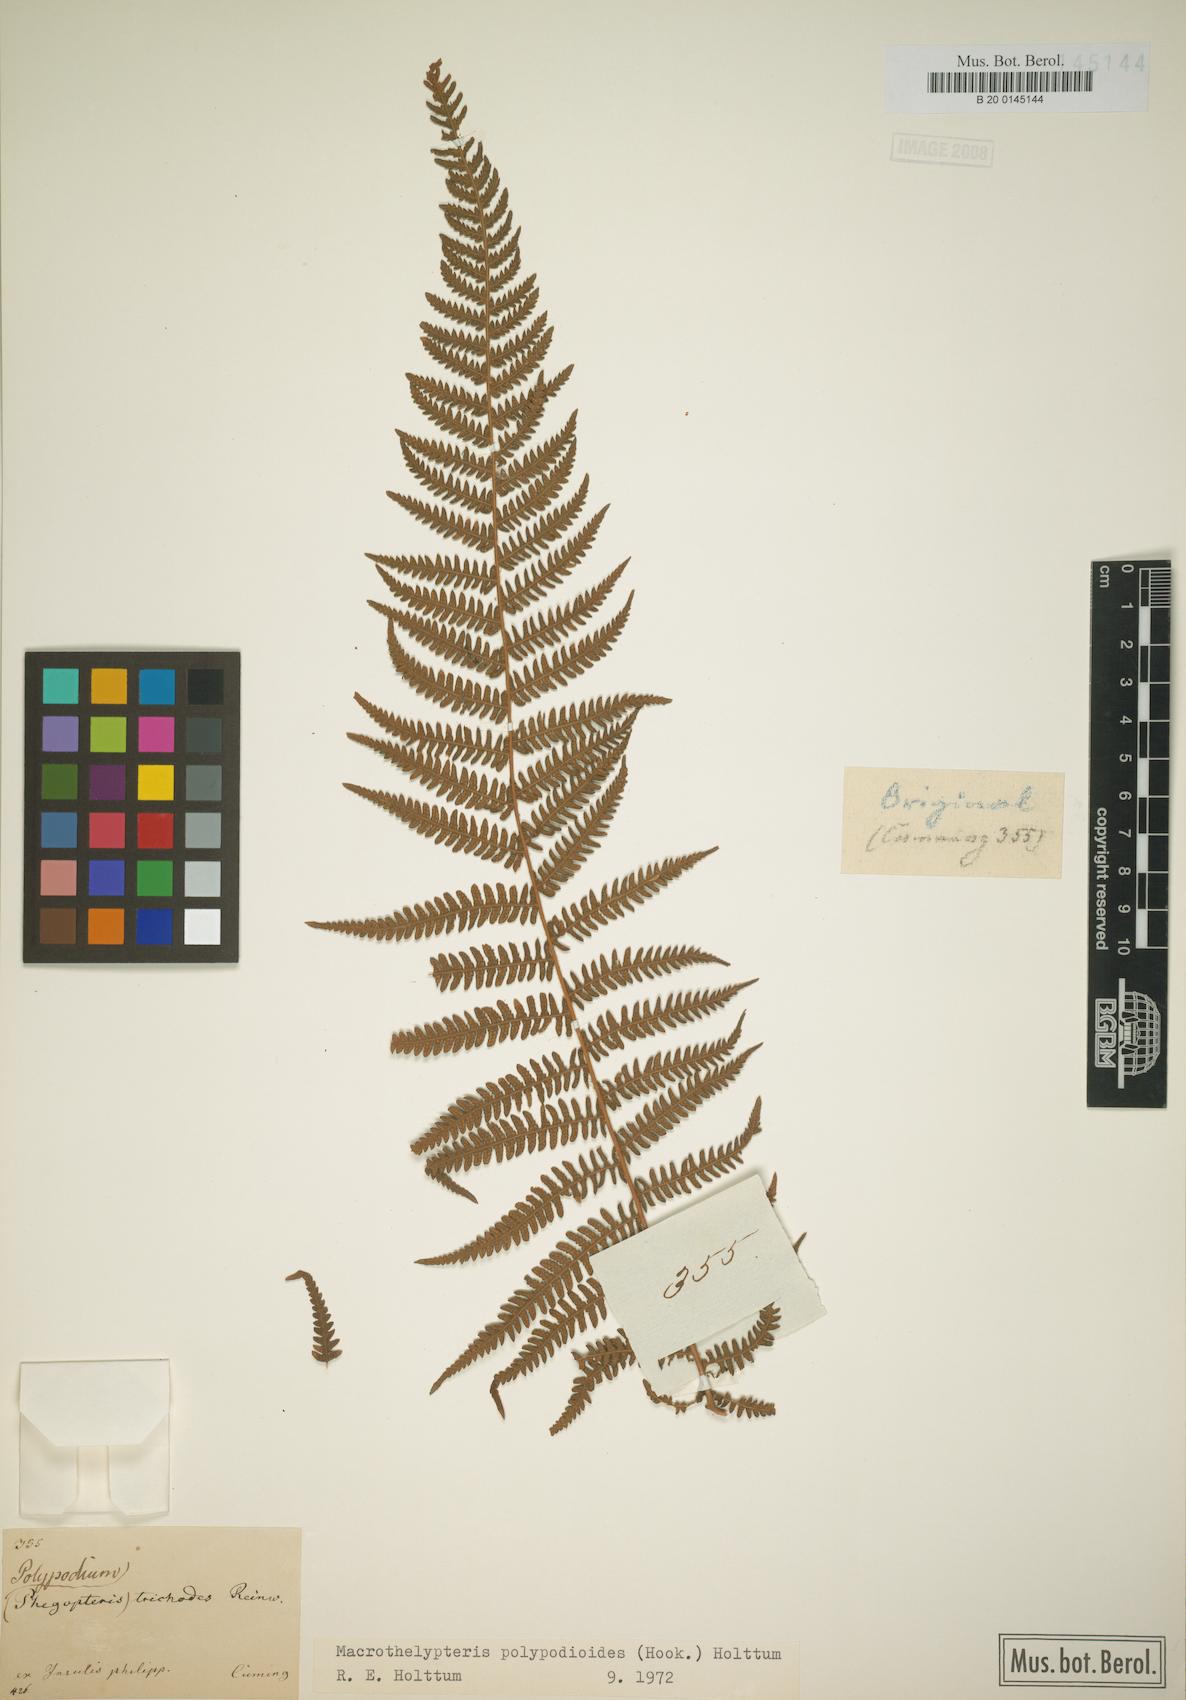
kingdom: Plantae
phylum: Tracheophyta
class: Polypodiopsida
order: Polypodiales
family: Thelypteridaceae
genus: Macrothelypteris
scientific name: Macrothelypteris polypodioides
